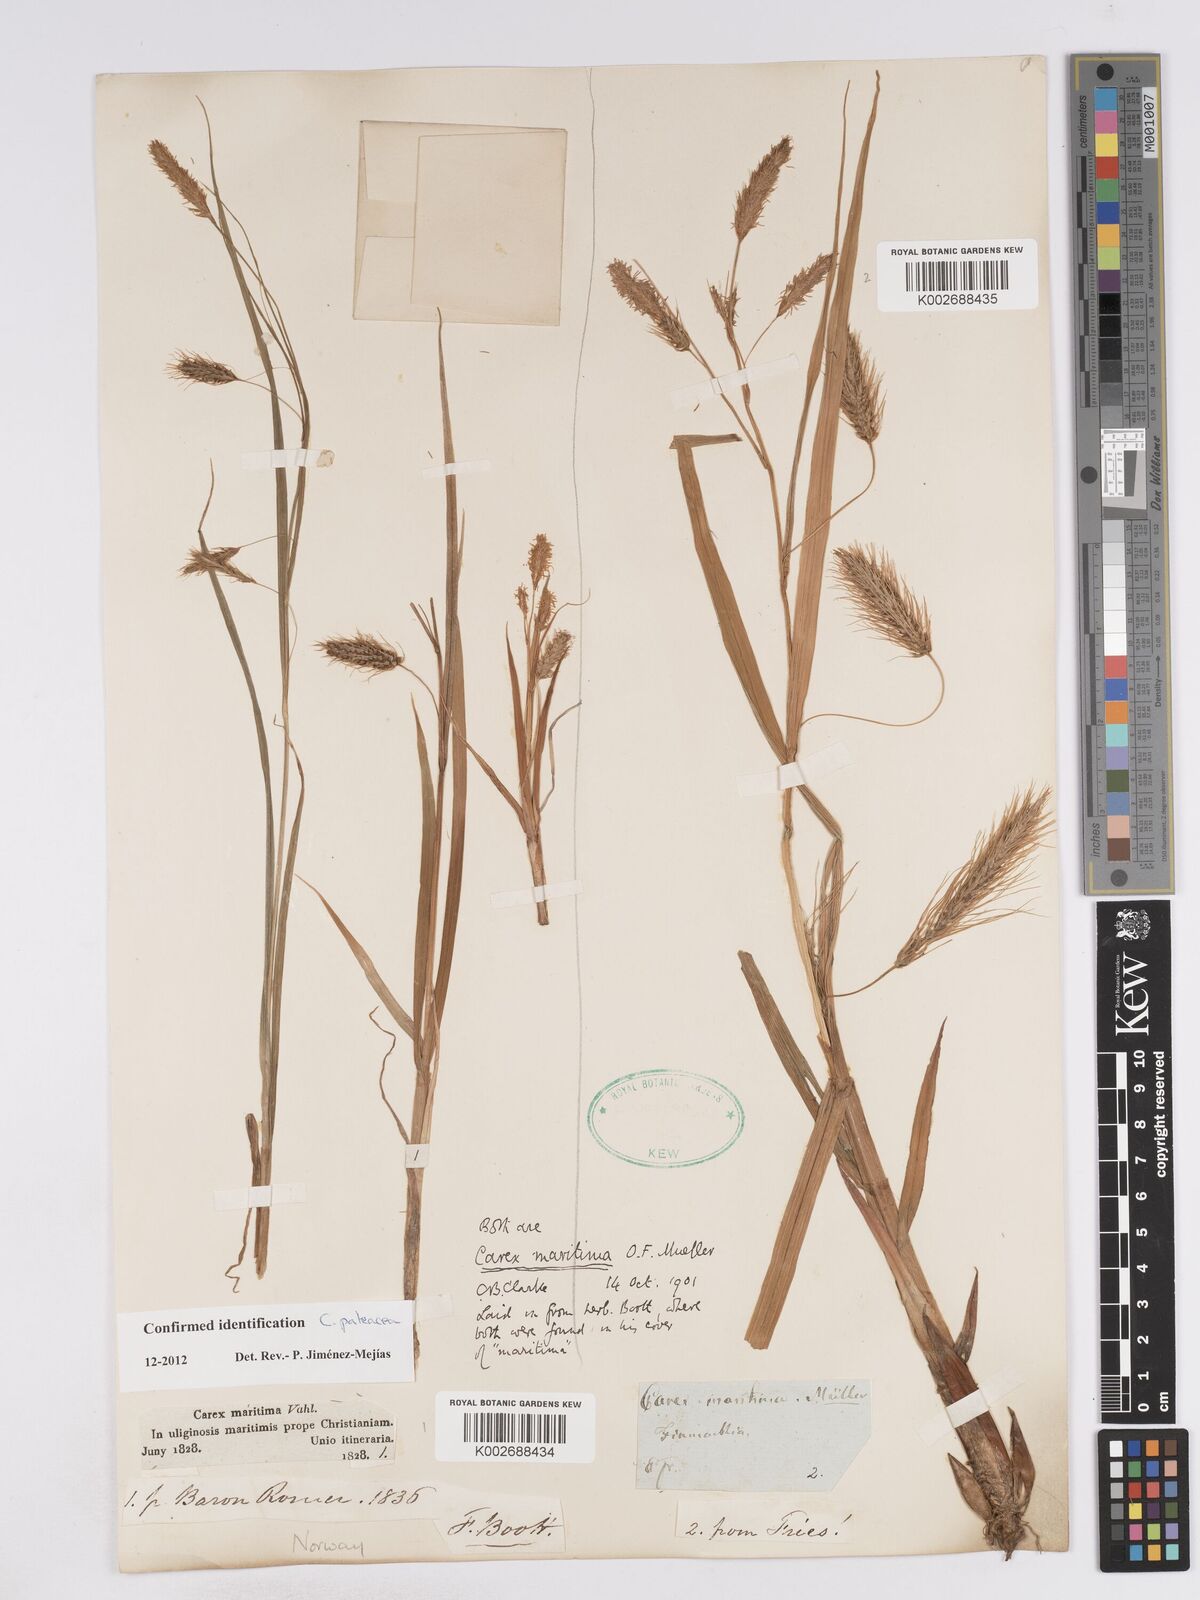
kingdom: Plantae
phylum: Tracheophyta
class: Liliopsida
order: Poales
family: Cyperaceae
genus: Carex
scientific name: Carex paleacea
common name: Chaffy sedge
